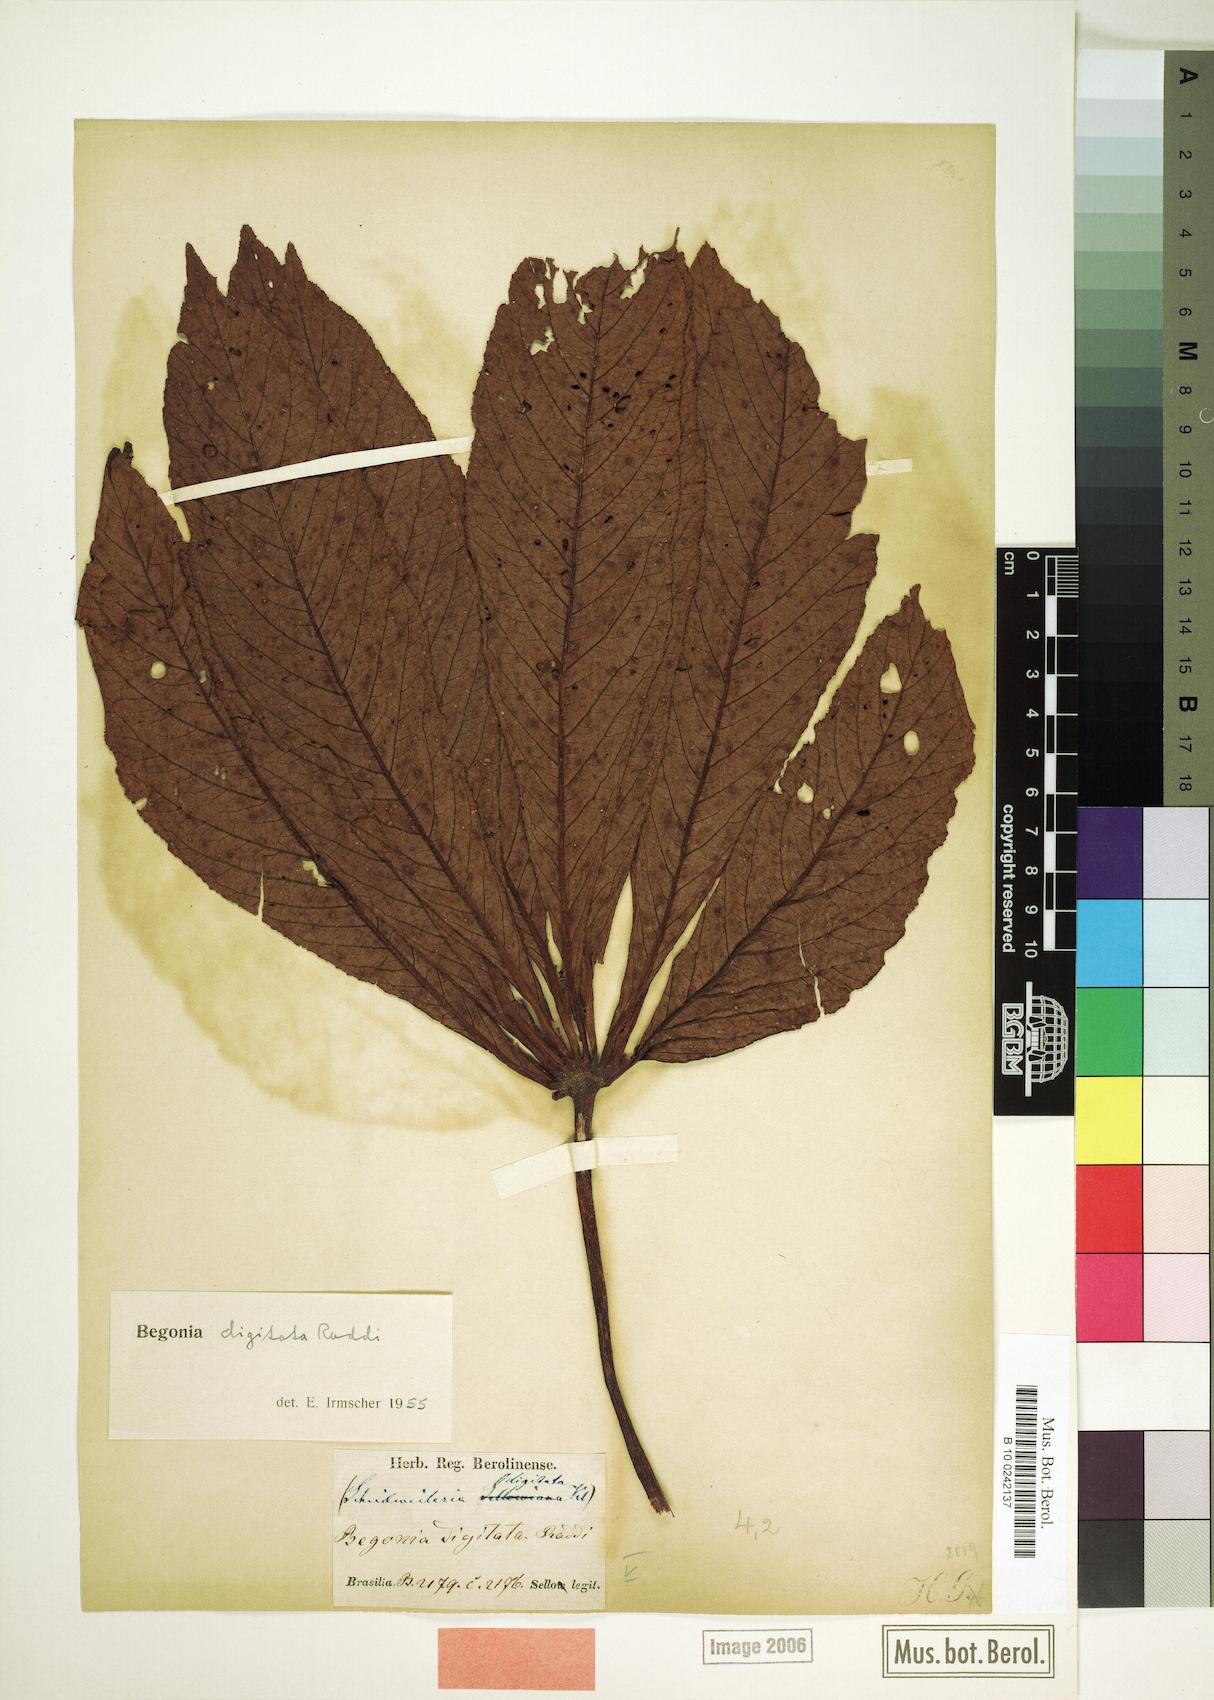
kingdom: Plantae
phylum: Tracheophyta
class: Magnoliopsida
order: Cucurbitales
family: Begoniaceae
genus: Begonia
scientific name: Begonia digitata
